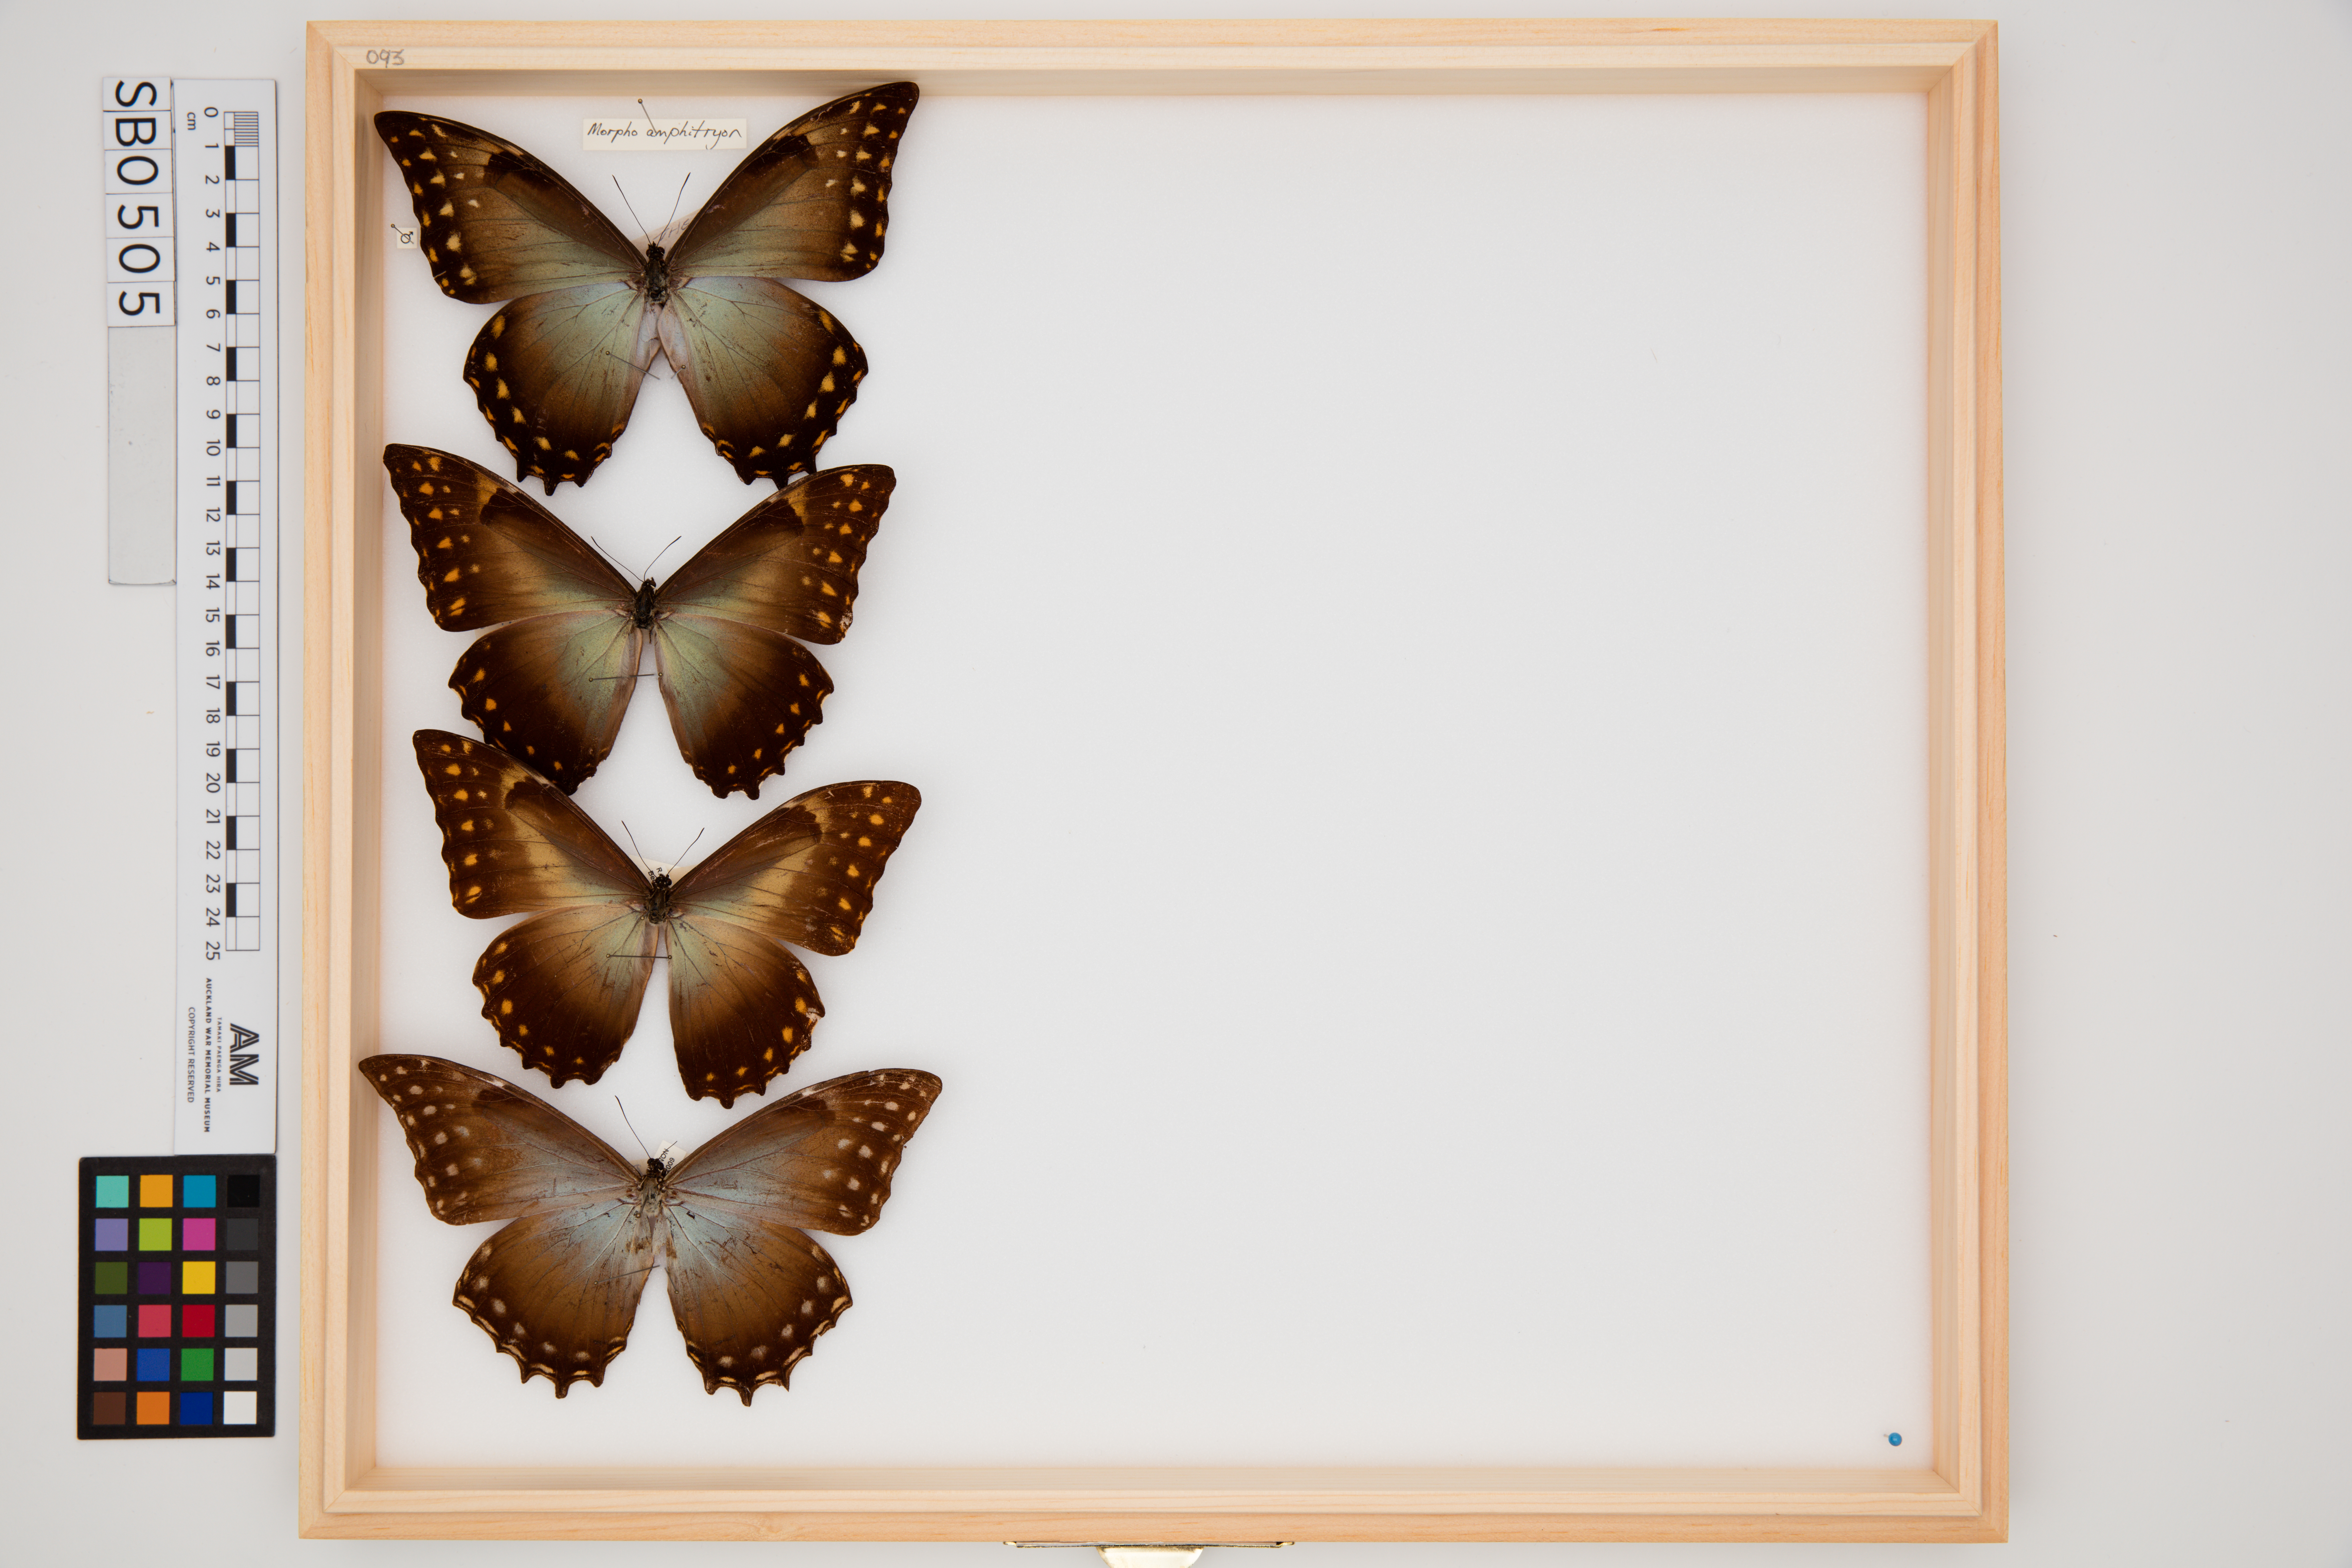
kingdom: Animalia
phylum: Arthropoda
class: Insecta
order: Lepidoptera
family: Nymphalidae
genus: Morpho
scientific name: Morpho amphitrion
